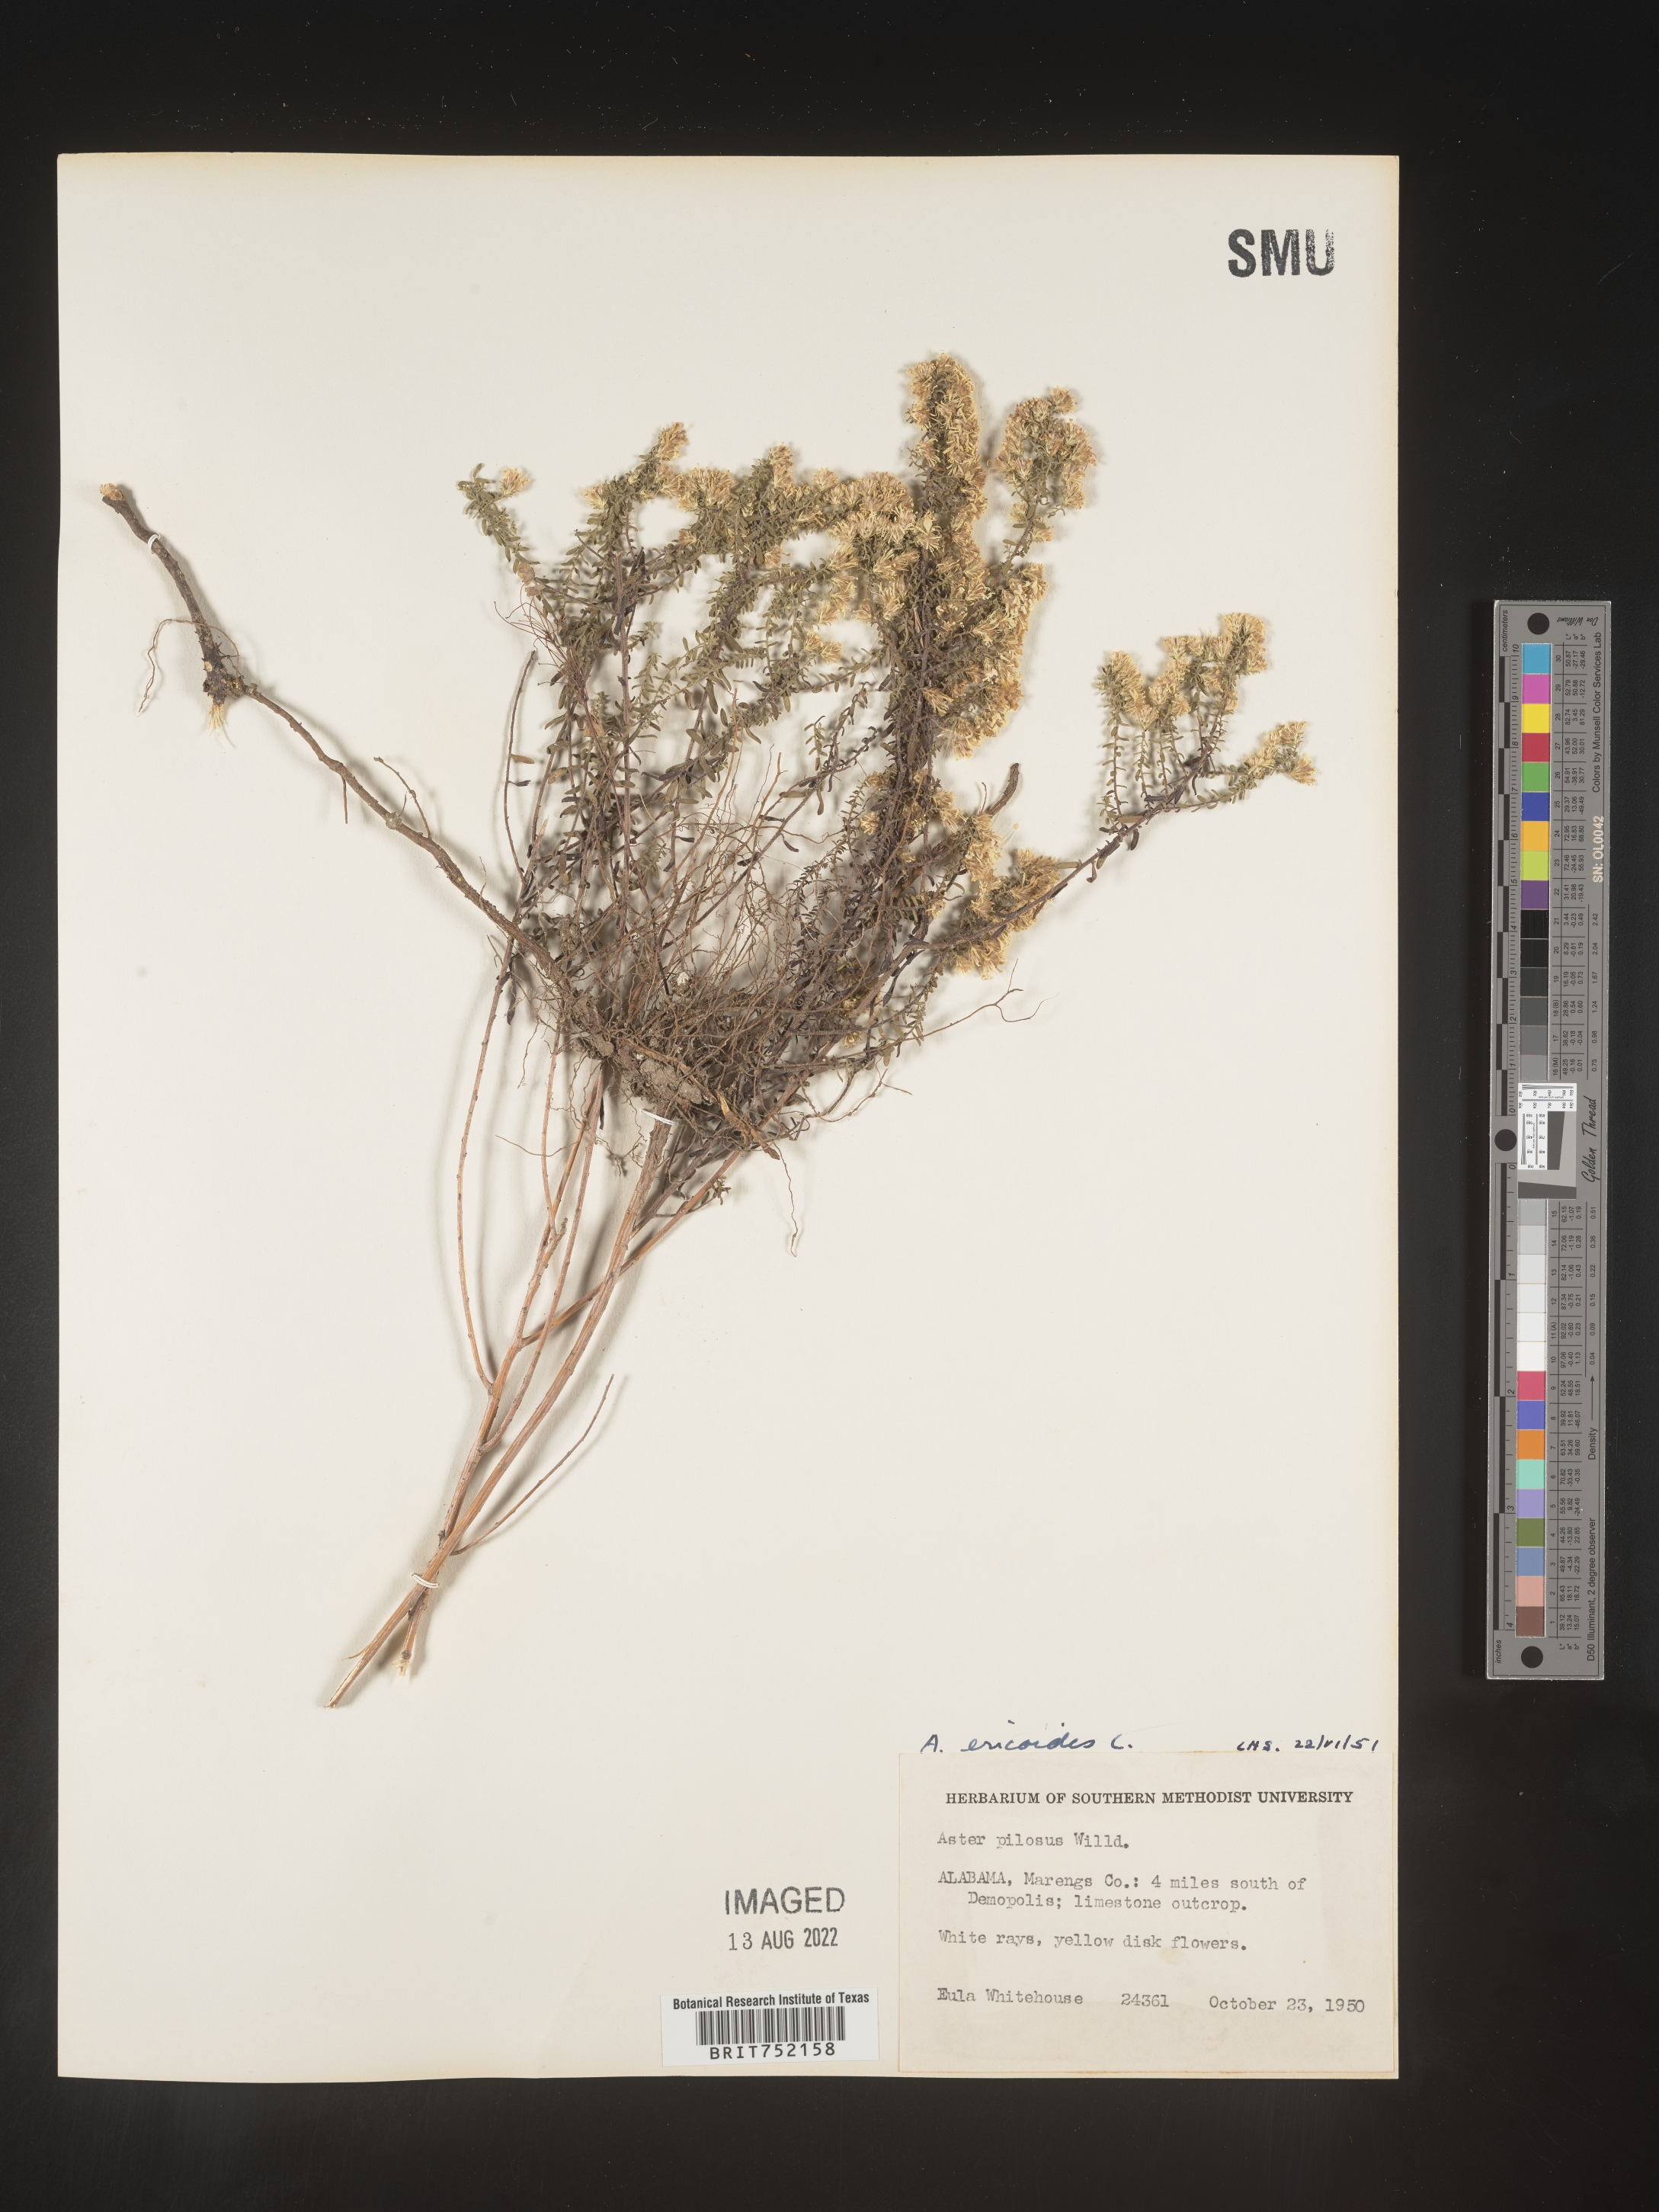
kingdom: Plantae
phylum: Tracheophyta
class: Magnoliopsida
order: Asterales
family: Asteraceae
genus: Symphyotrichum
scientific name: Symphyotrichum ericoides
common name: Heath aster
